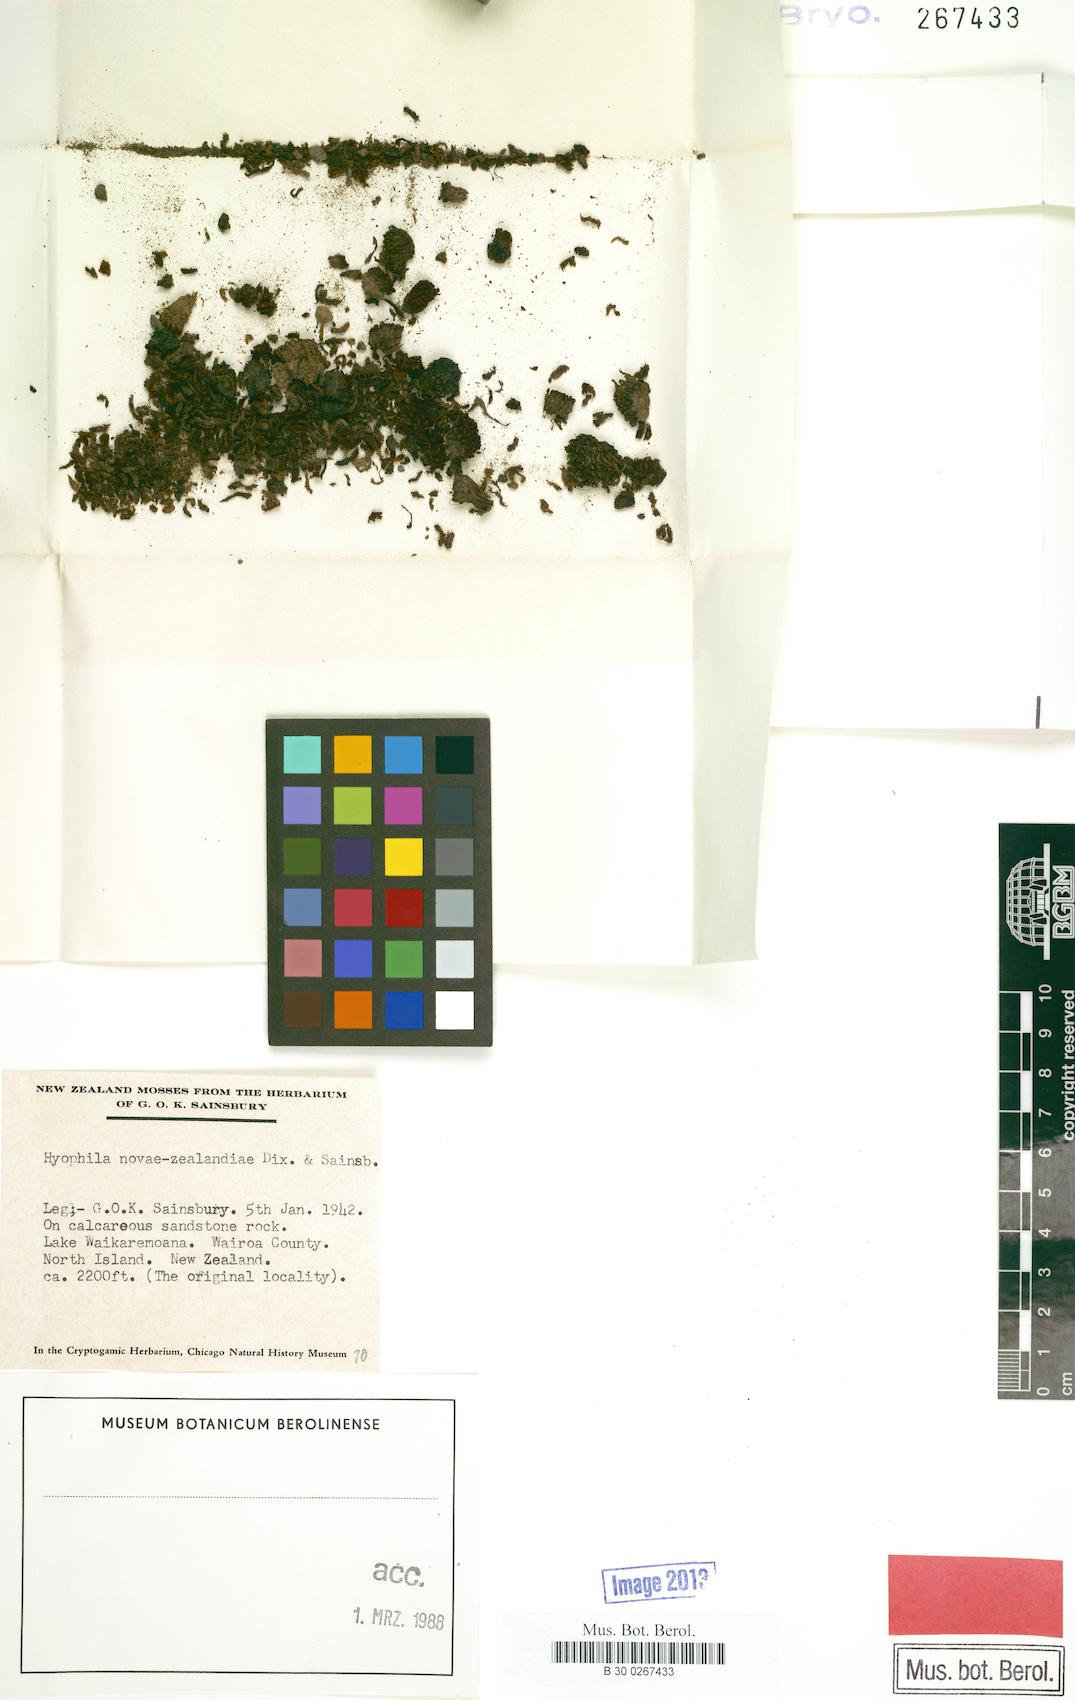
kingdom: Plantae
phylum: Bryophyta
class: Bryopsida
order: Pottiales
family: Pottiaceae
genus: Hyophila
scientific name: Hyophila novae-seelandiae
